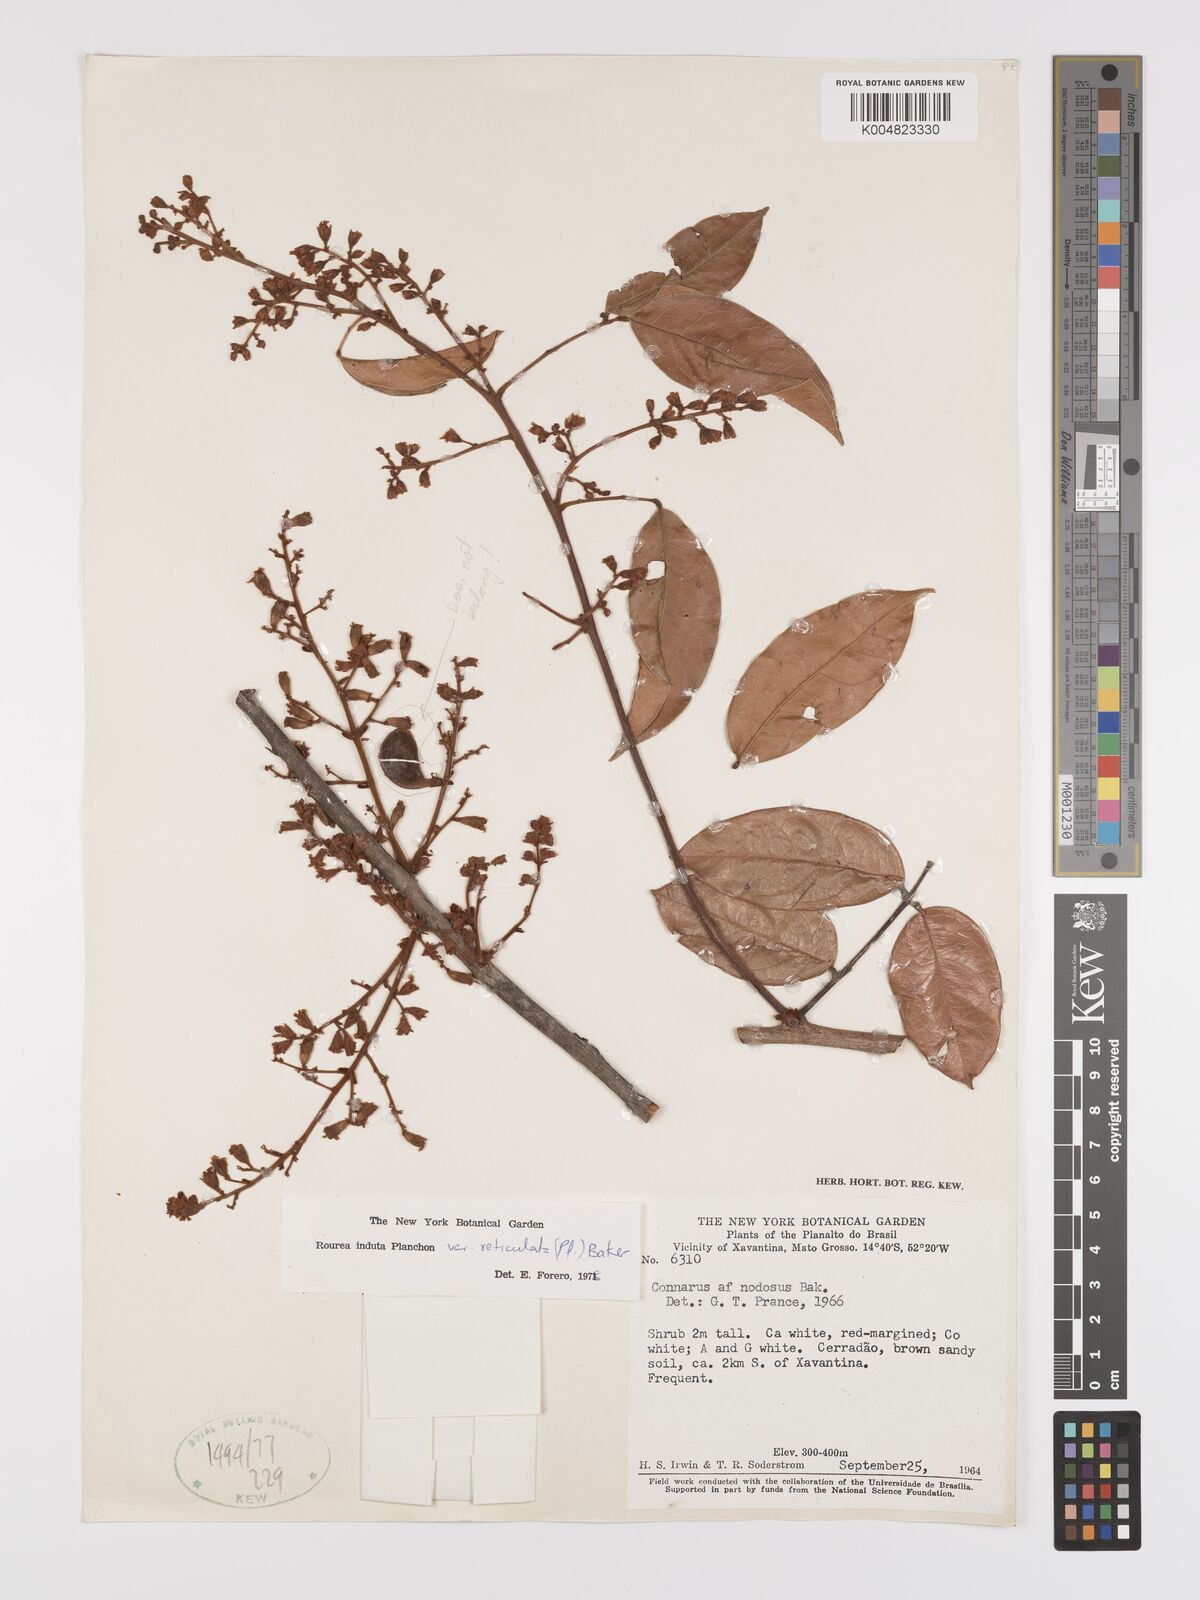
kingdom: Plantae
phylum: Tracheophyta
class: Magnoliopsida
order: Oxalidales
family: Connaraceae
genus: Rourea
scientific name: Rourea induta
